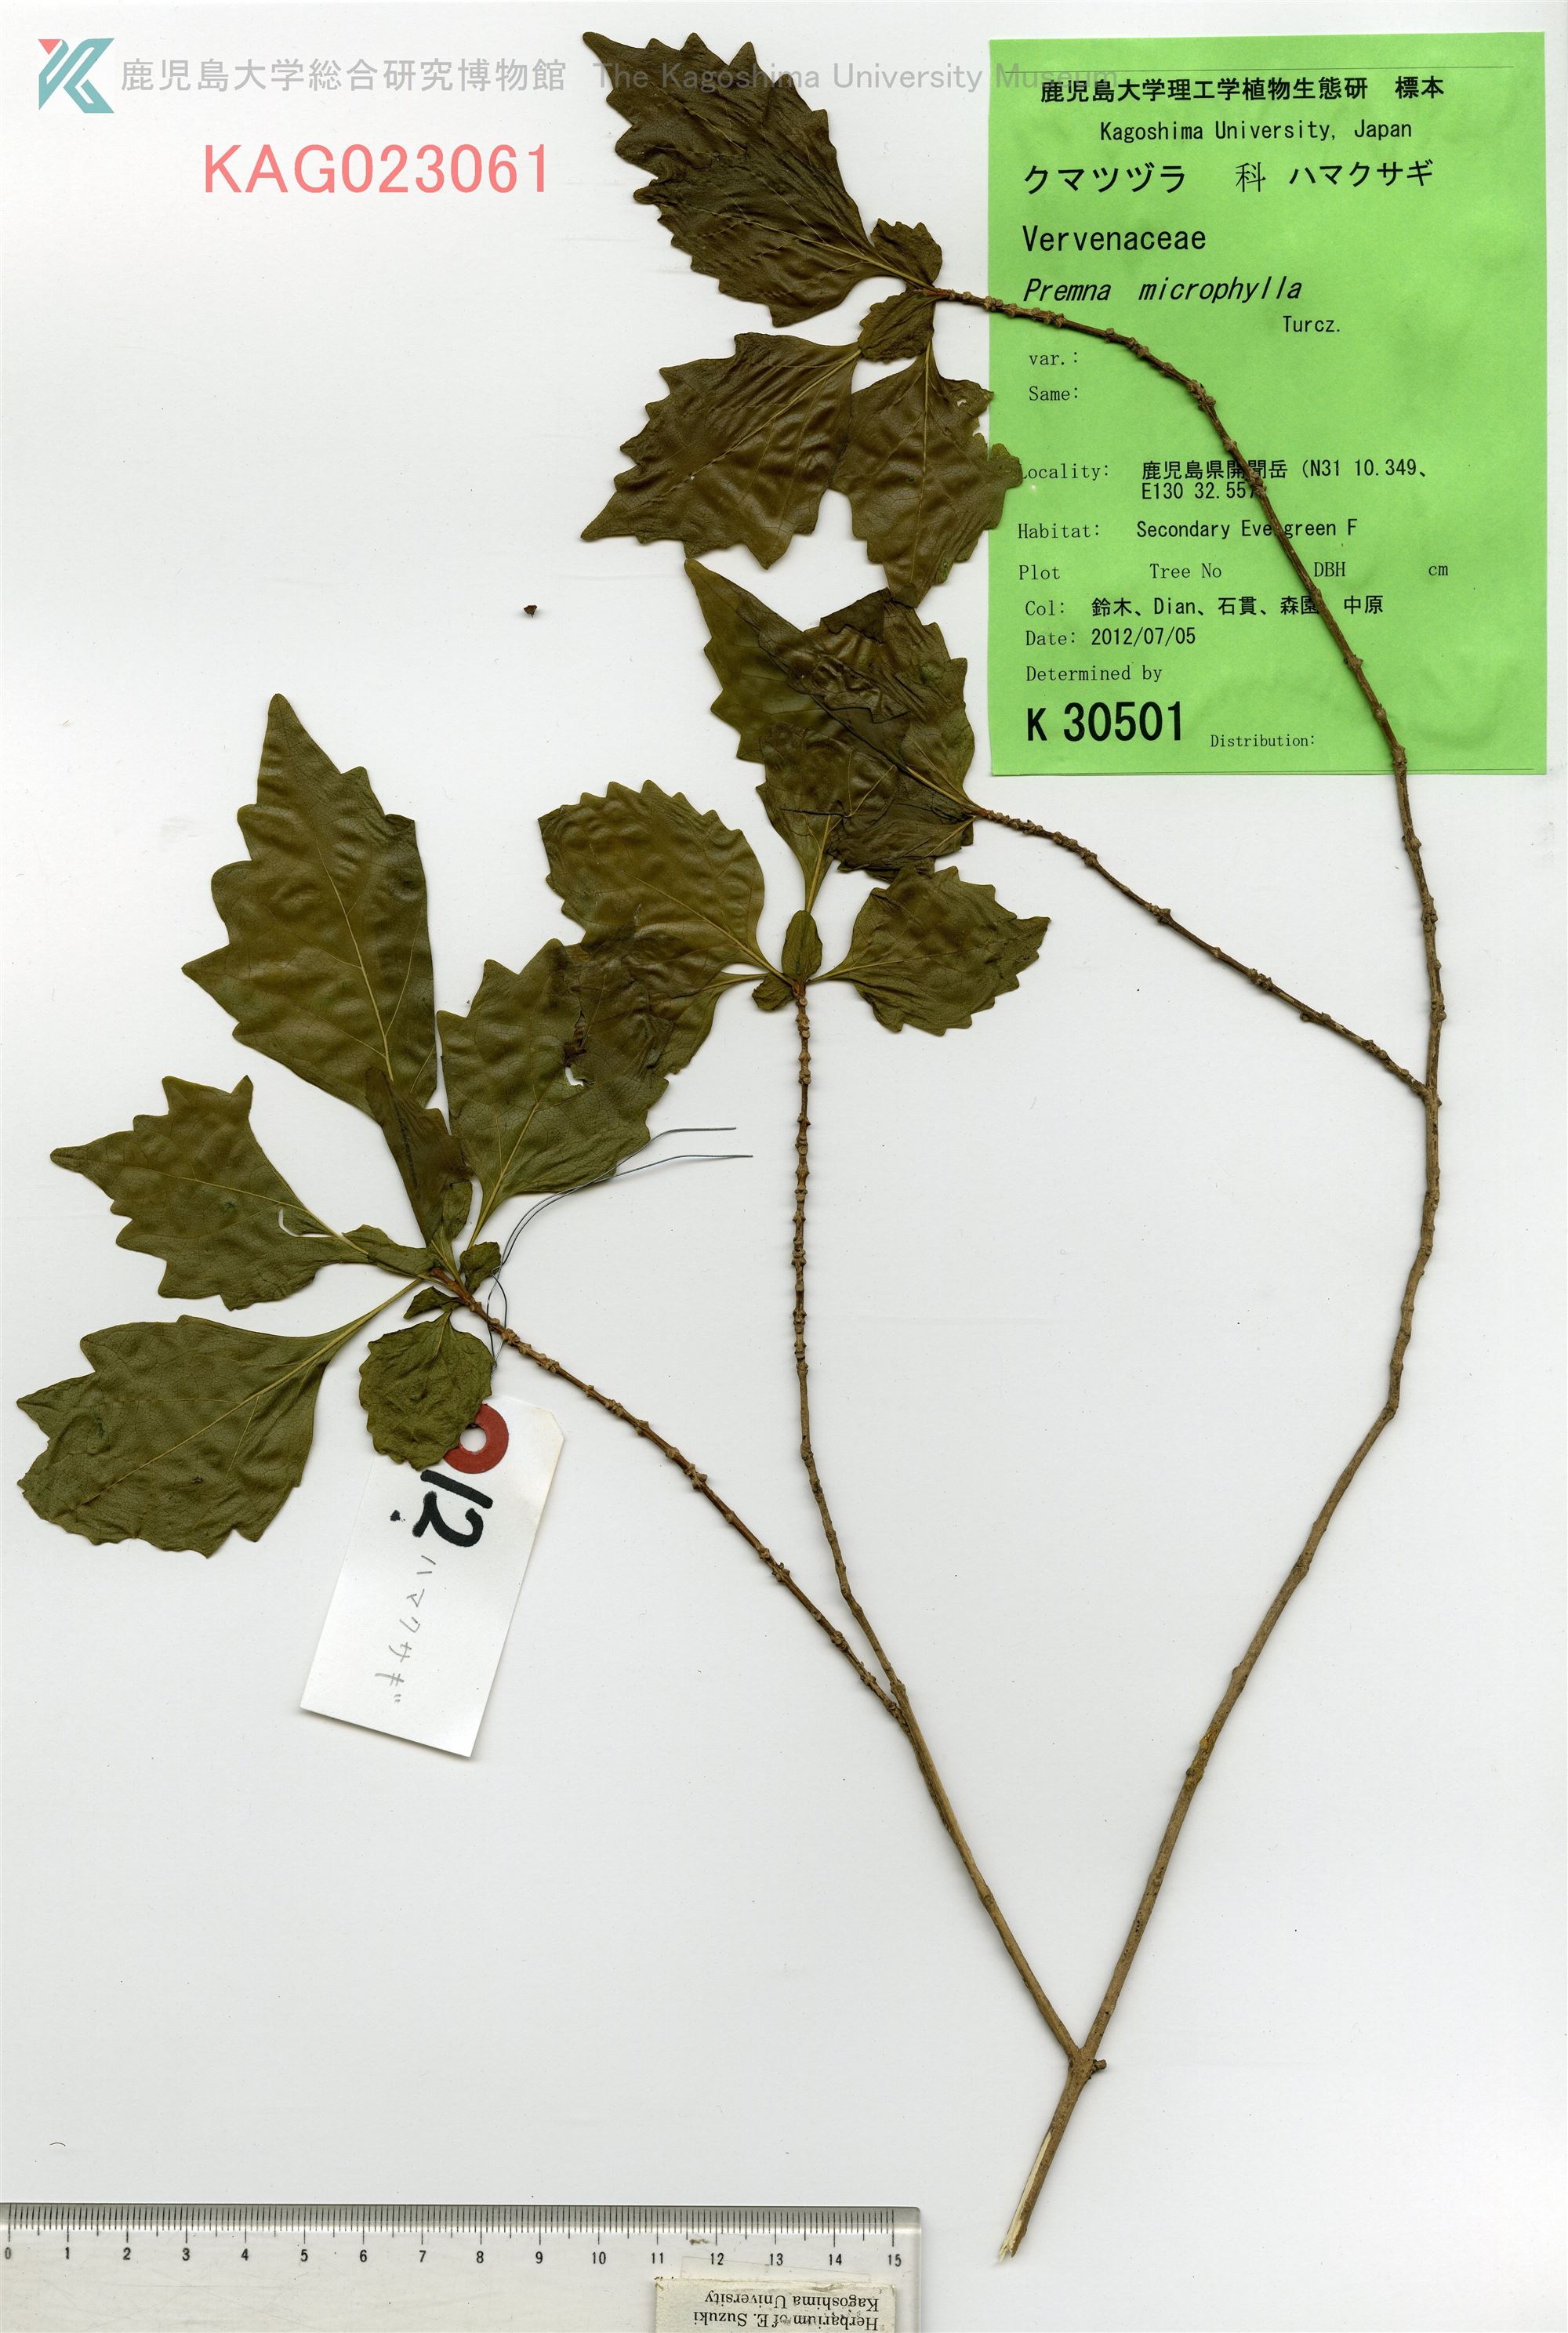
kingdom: Plantae
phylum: Tracheophyta
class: Magnoliopsida
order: Lamiales
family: Lamiaceae
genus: Premna
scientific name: Premna microphylla
